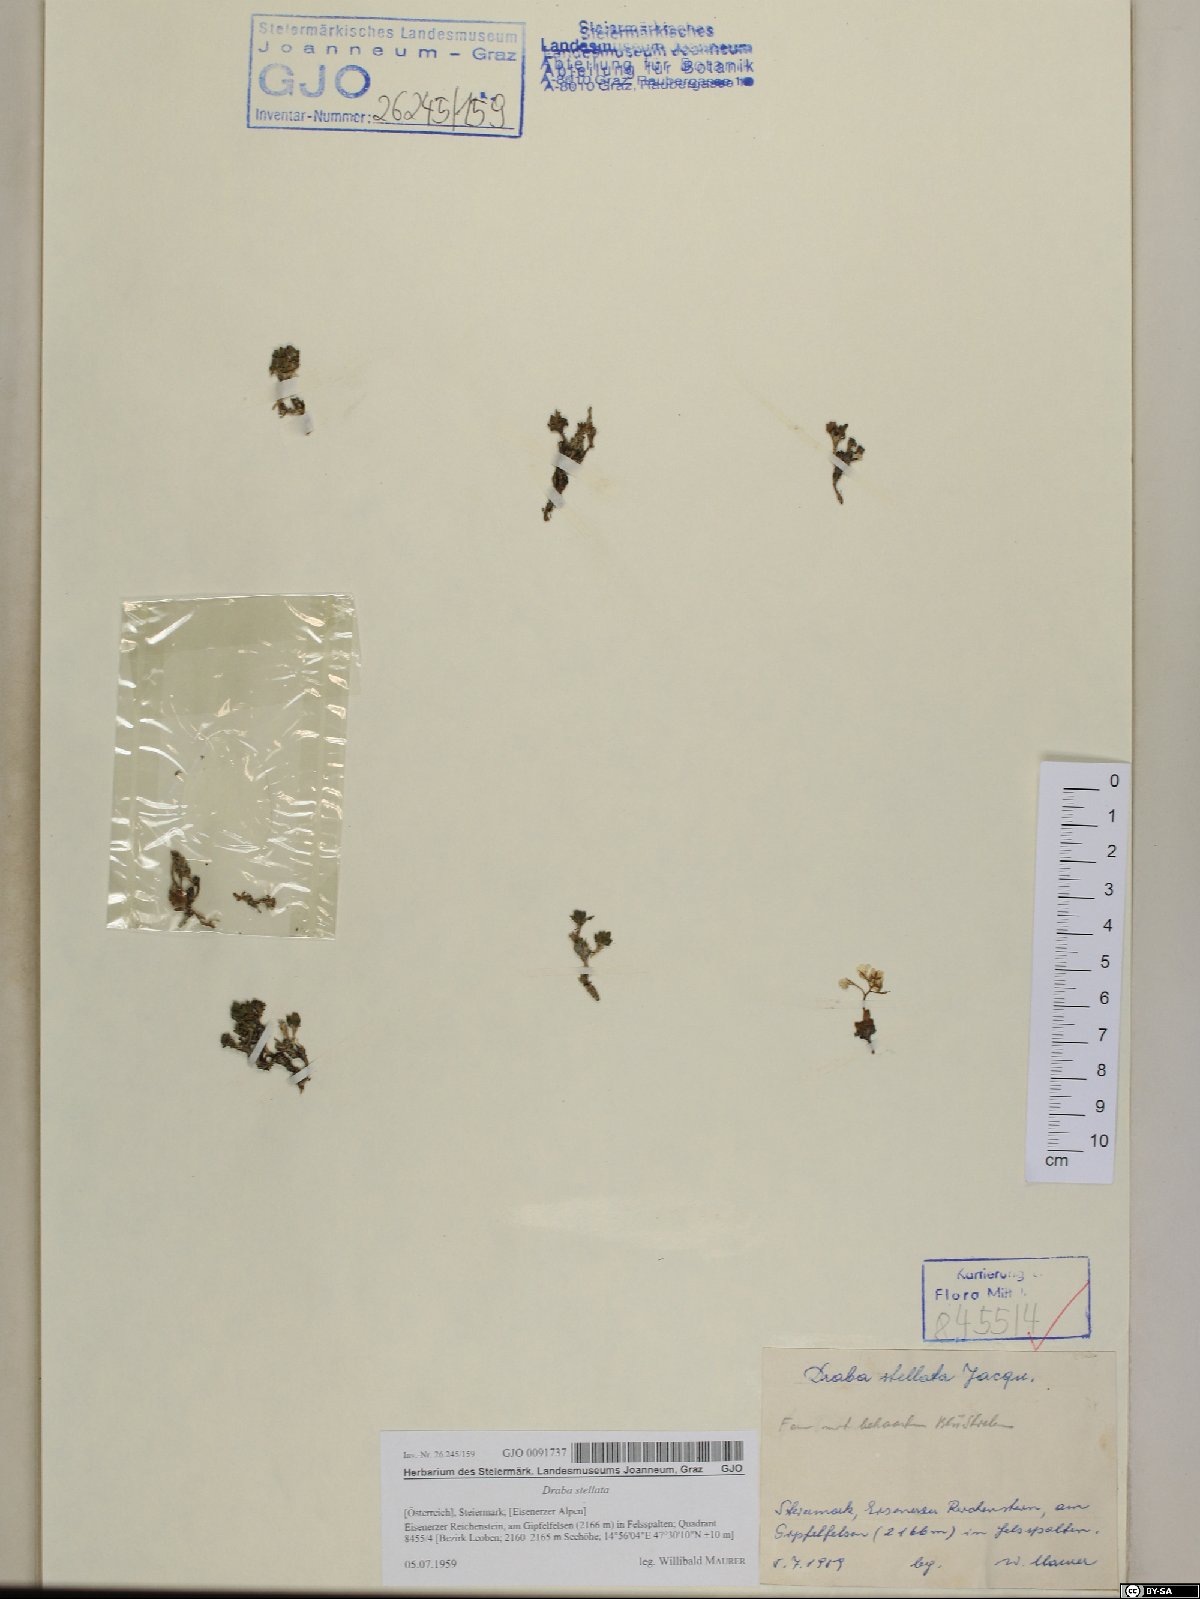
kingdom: Plantae
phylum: Tracheophyta
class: Magnoliopsida
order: Brassicales
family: Brassicaceae
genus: Draba
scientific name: Draba stellata
